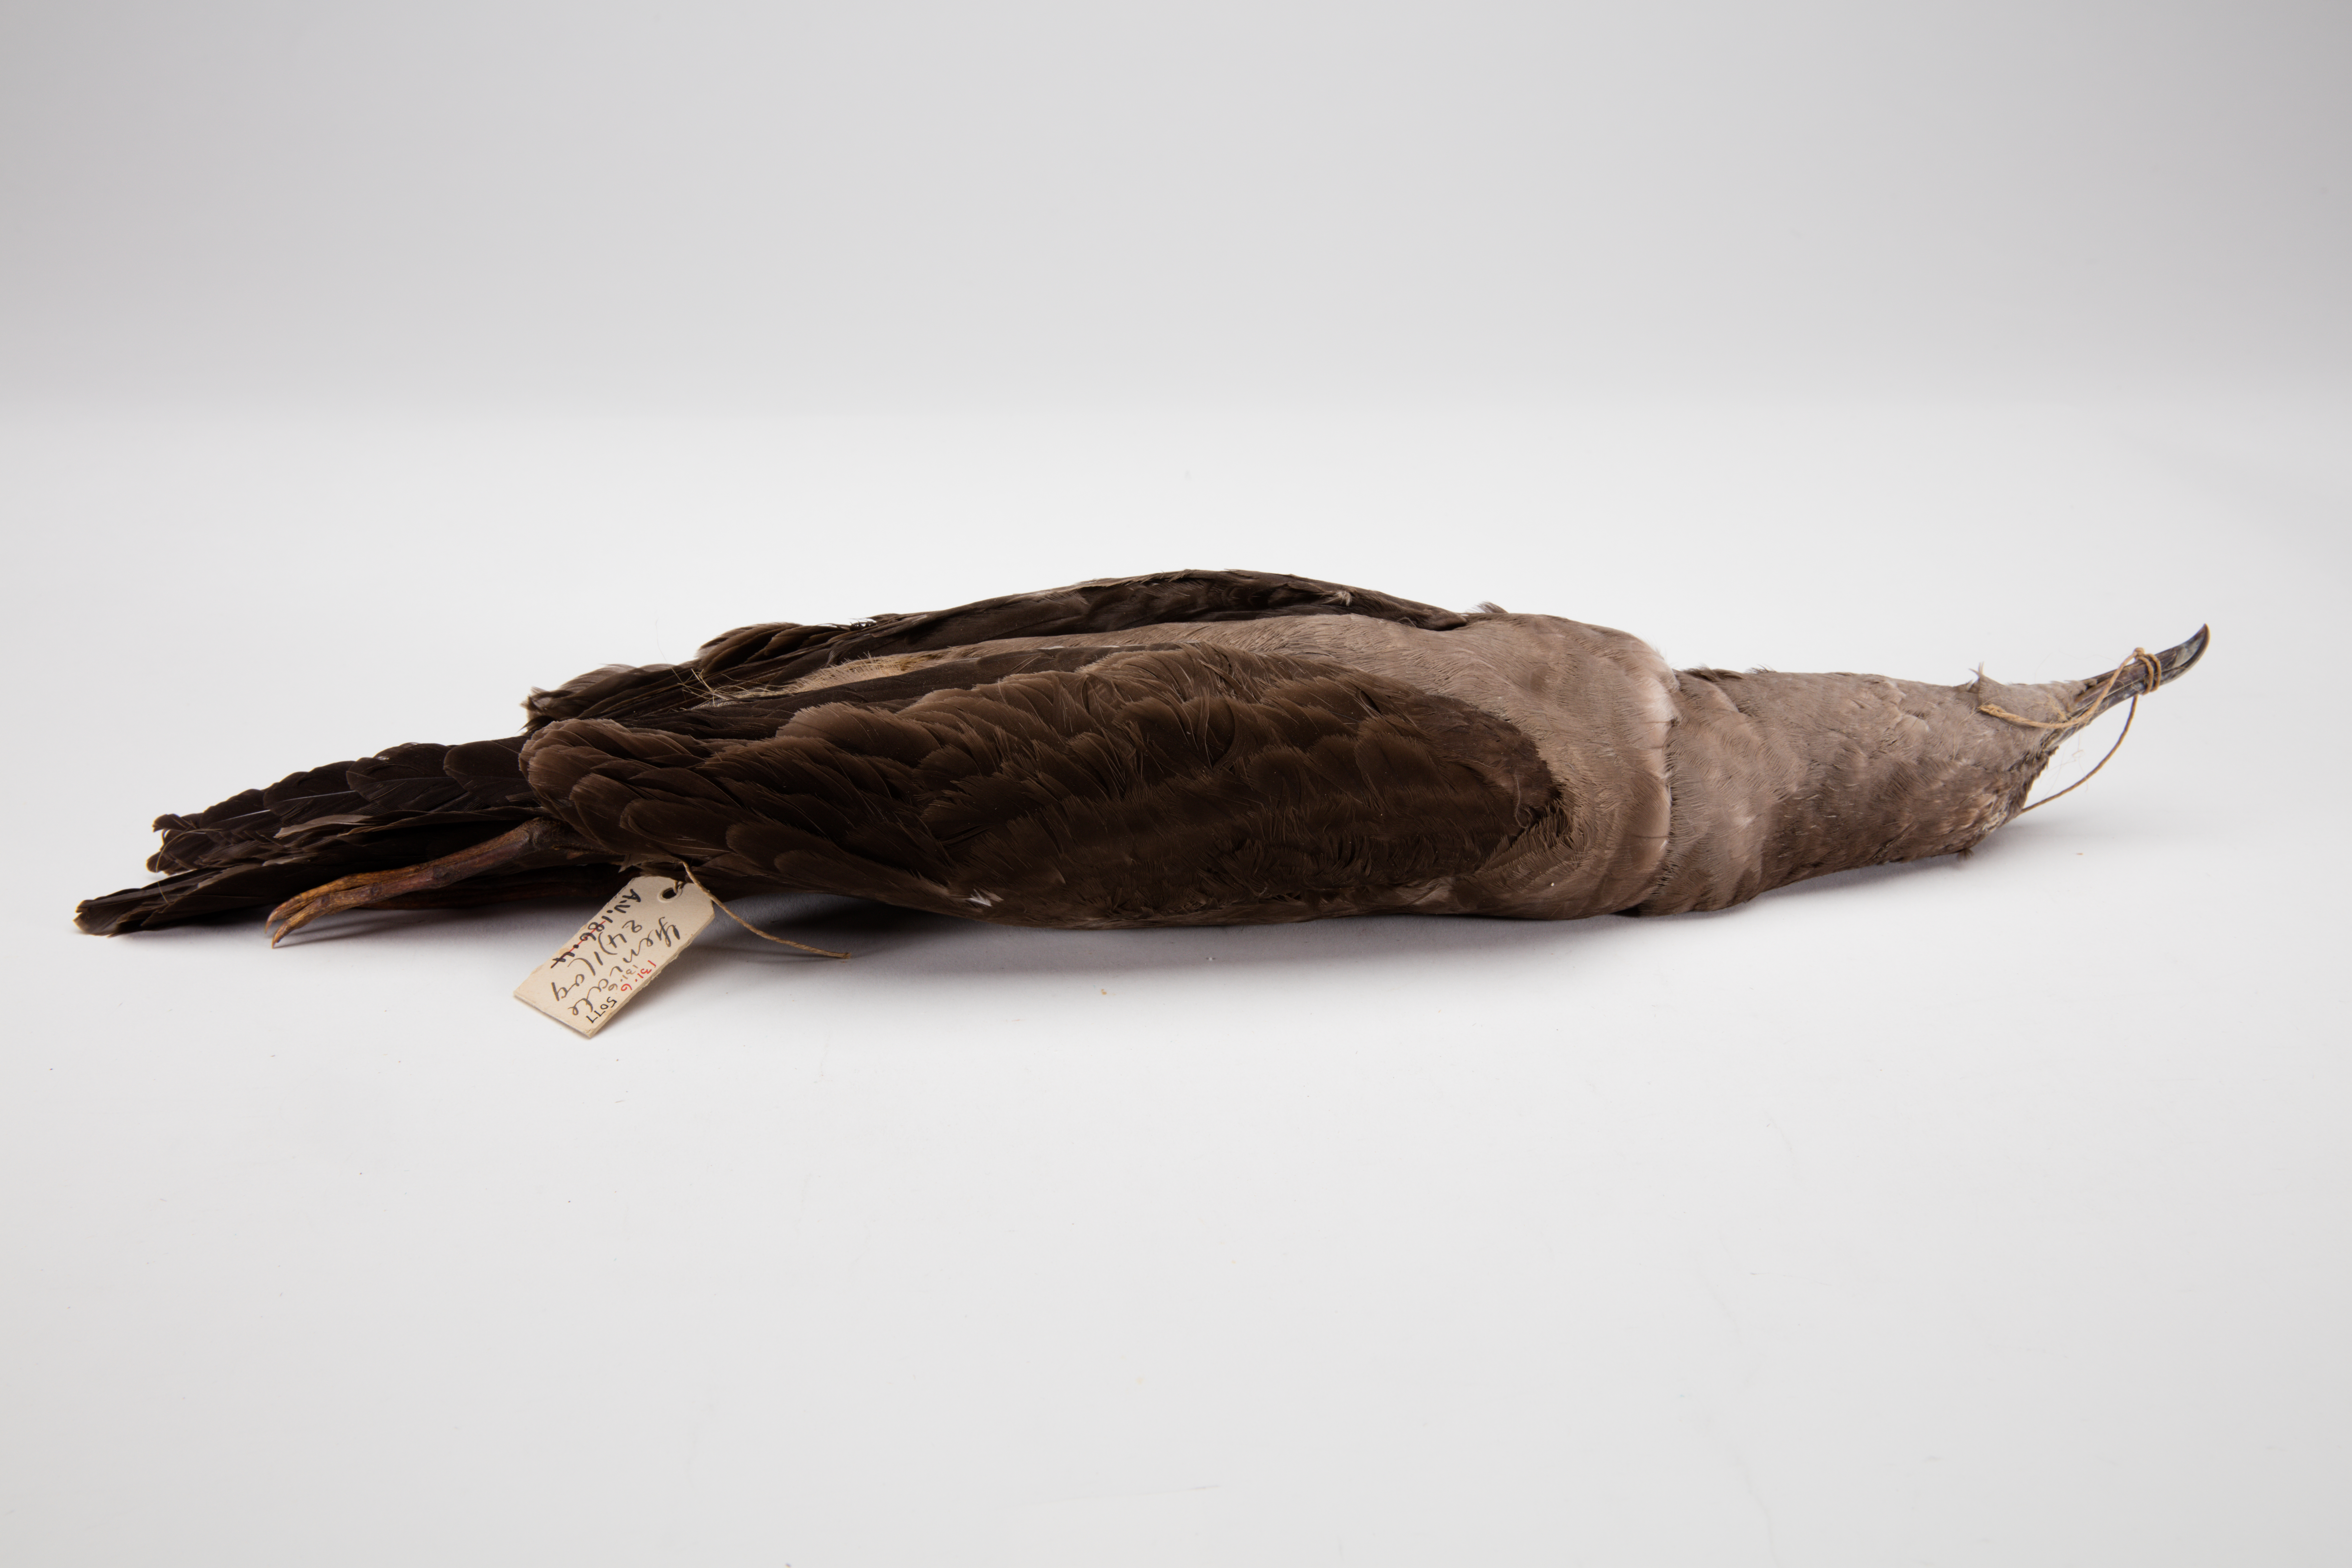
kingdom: Animalia
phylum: Chordata
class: Aves
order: Procellariiformes
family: Procellariidae
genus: Puffinus
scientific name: Puffinus pacificus
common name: Wedge-tailed shearwater
